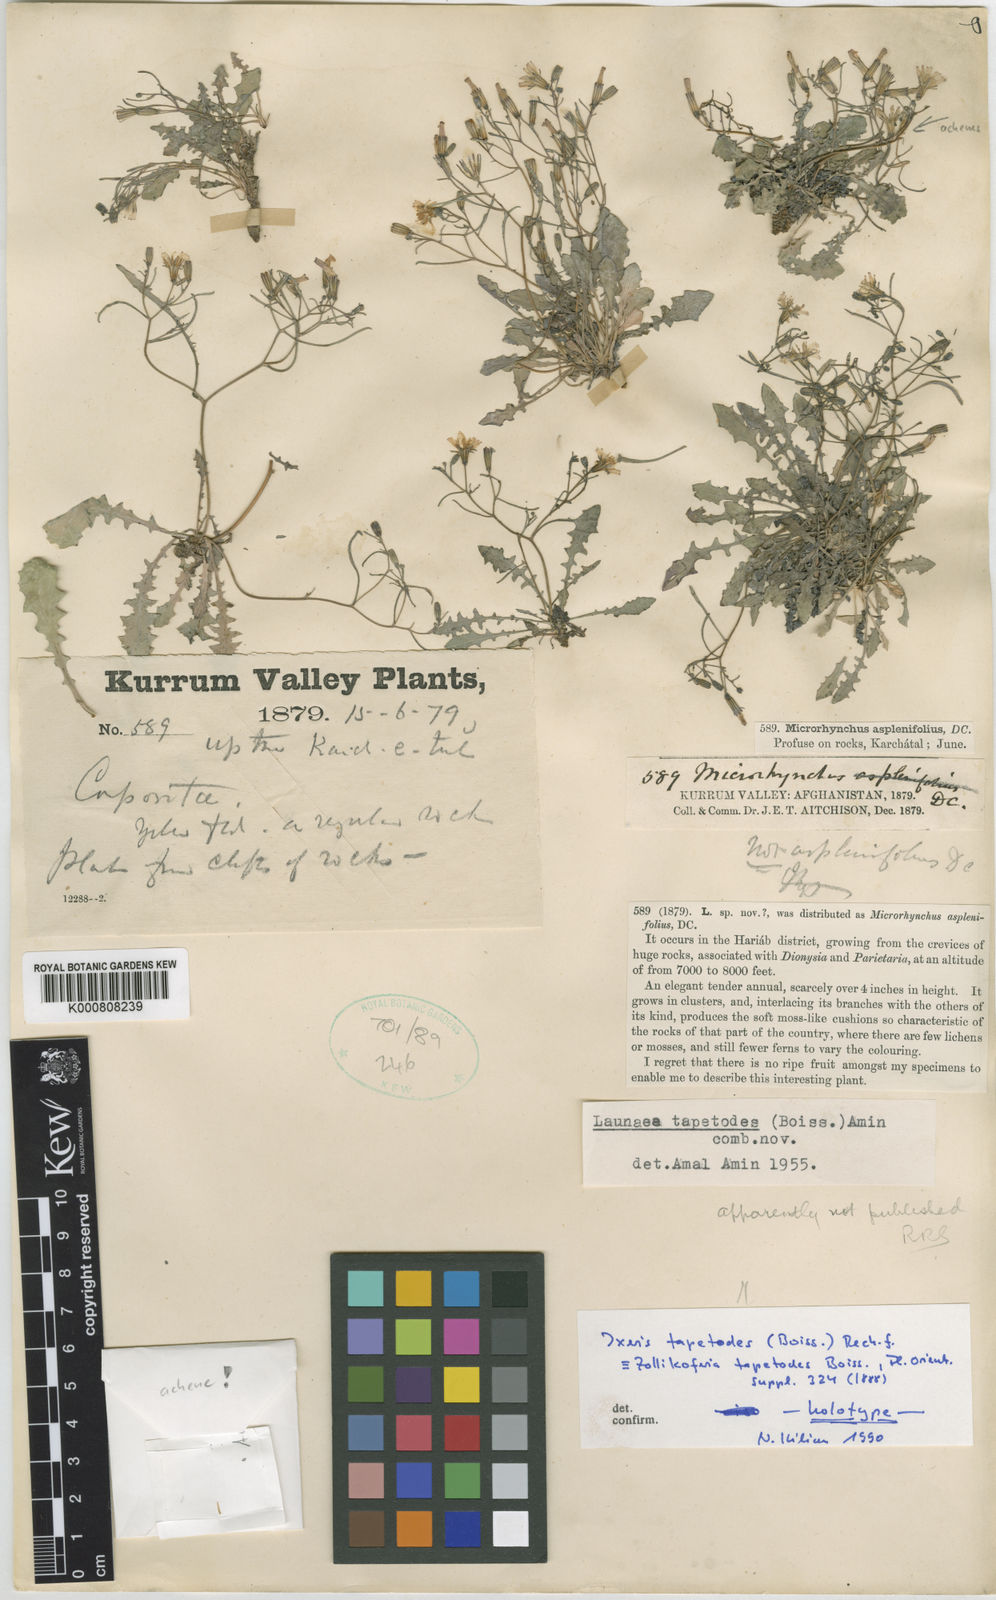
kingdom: Plantae
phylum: Tracheophyta
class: Magnoliopsida
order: Asterales
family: Asteraceae
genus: Ixeris
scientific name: Ixeris tapetodes
